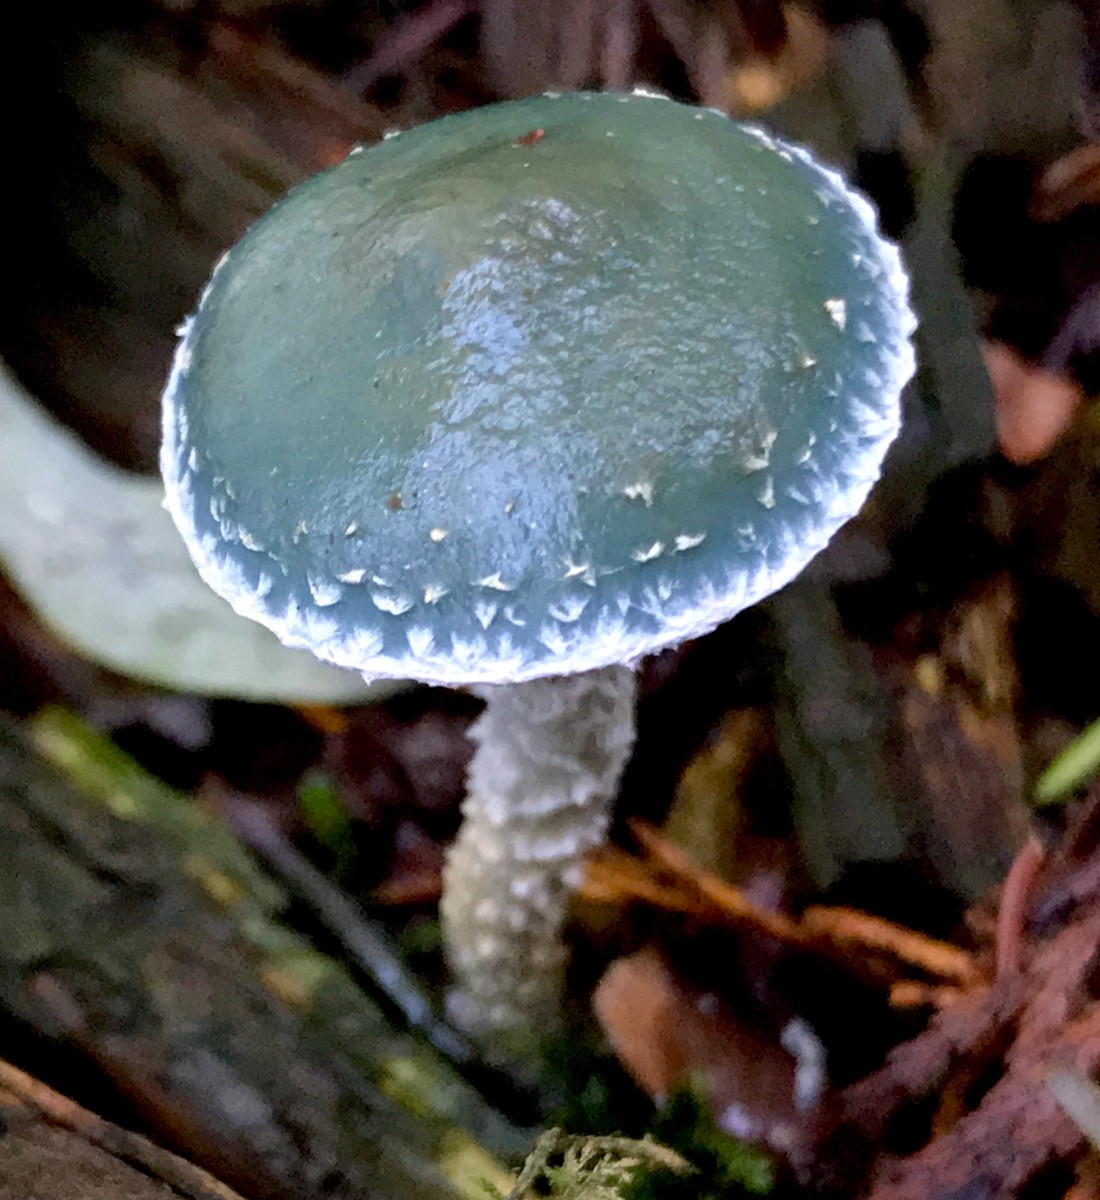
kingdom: Fungi
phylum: Basidiomycota
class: Agaricomycetes
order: Agaricales
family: Strophariaceae
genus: Stropharia
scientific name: Stropharia aeruginosa
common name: spanskgrøn bredblad
